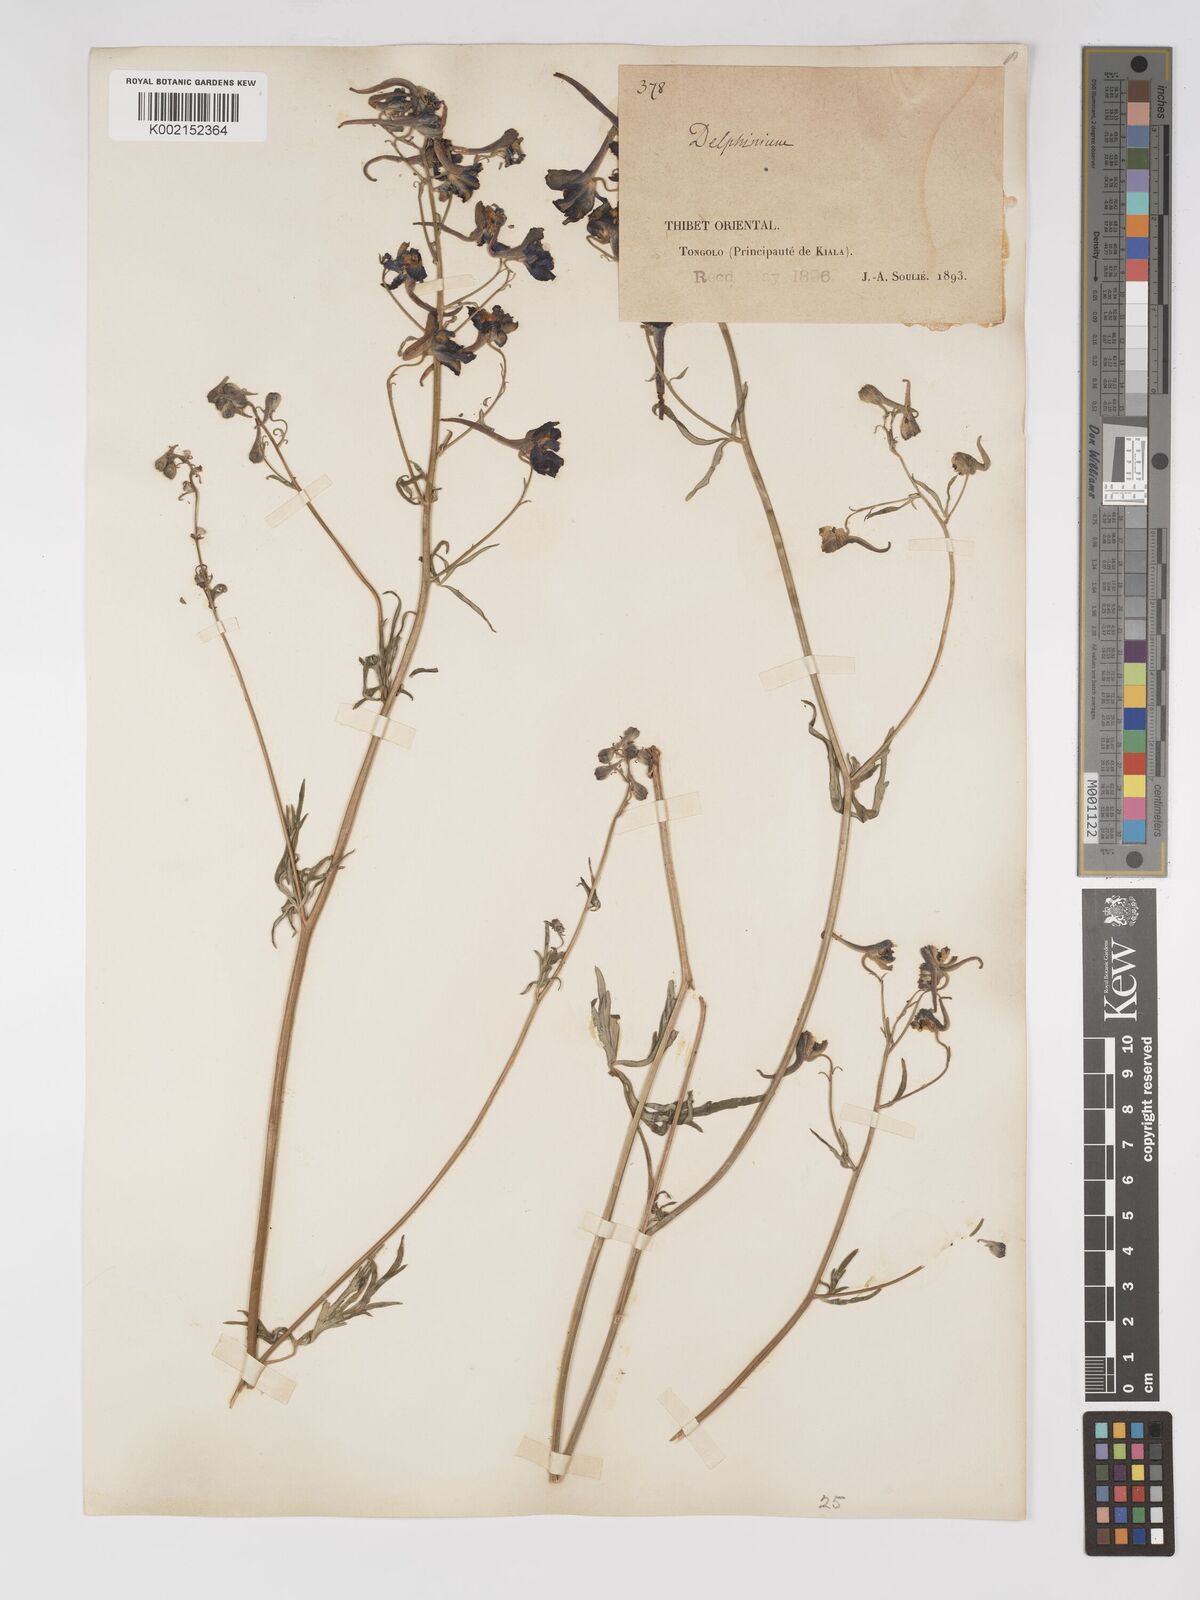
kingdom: Plantae
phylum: Tracheophyta
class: Magnoliopsida
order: Ranunculales
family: Ranunculaceae
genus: Delphinium
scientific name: Delphinium tatsienense
